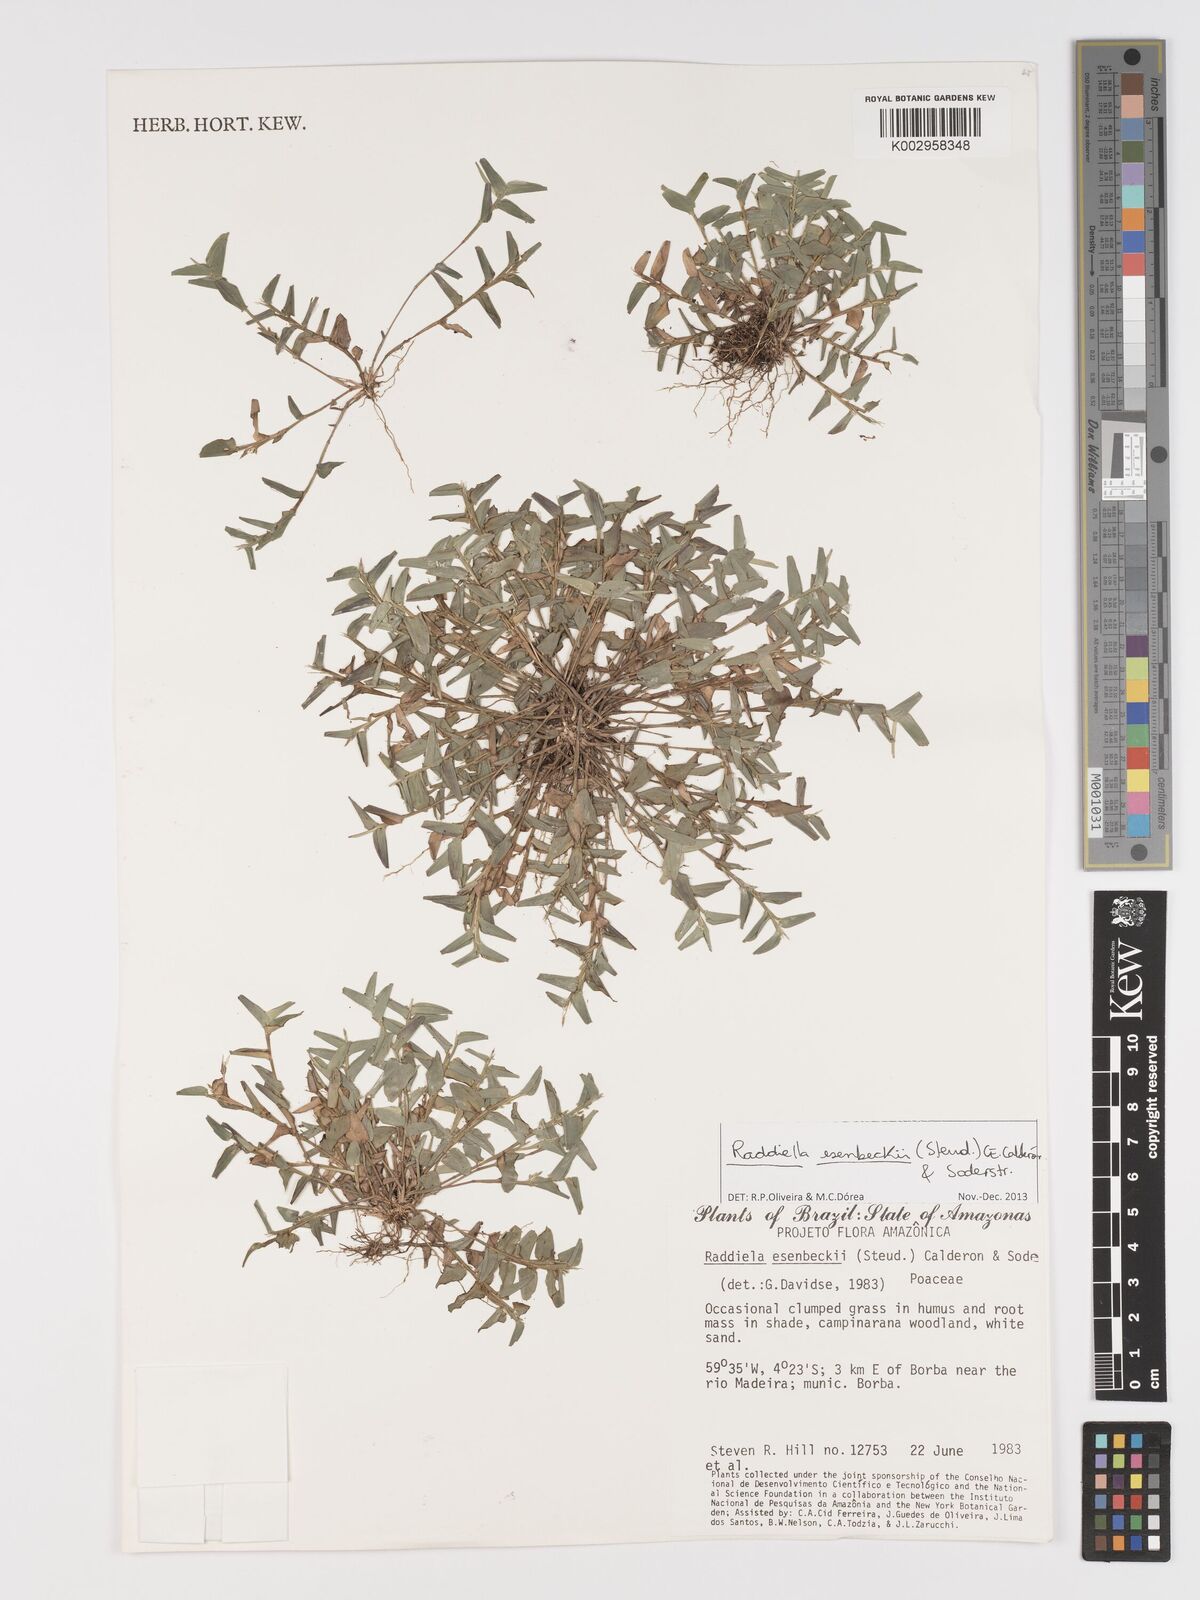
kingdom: Plantae
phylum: Tracheophyta
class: Liliopsida
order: Poales
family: Poaceae
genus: Raddiella
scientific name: Raddiella esenbeckii
